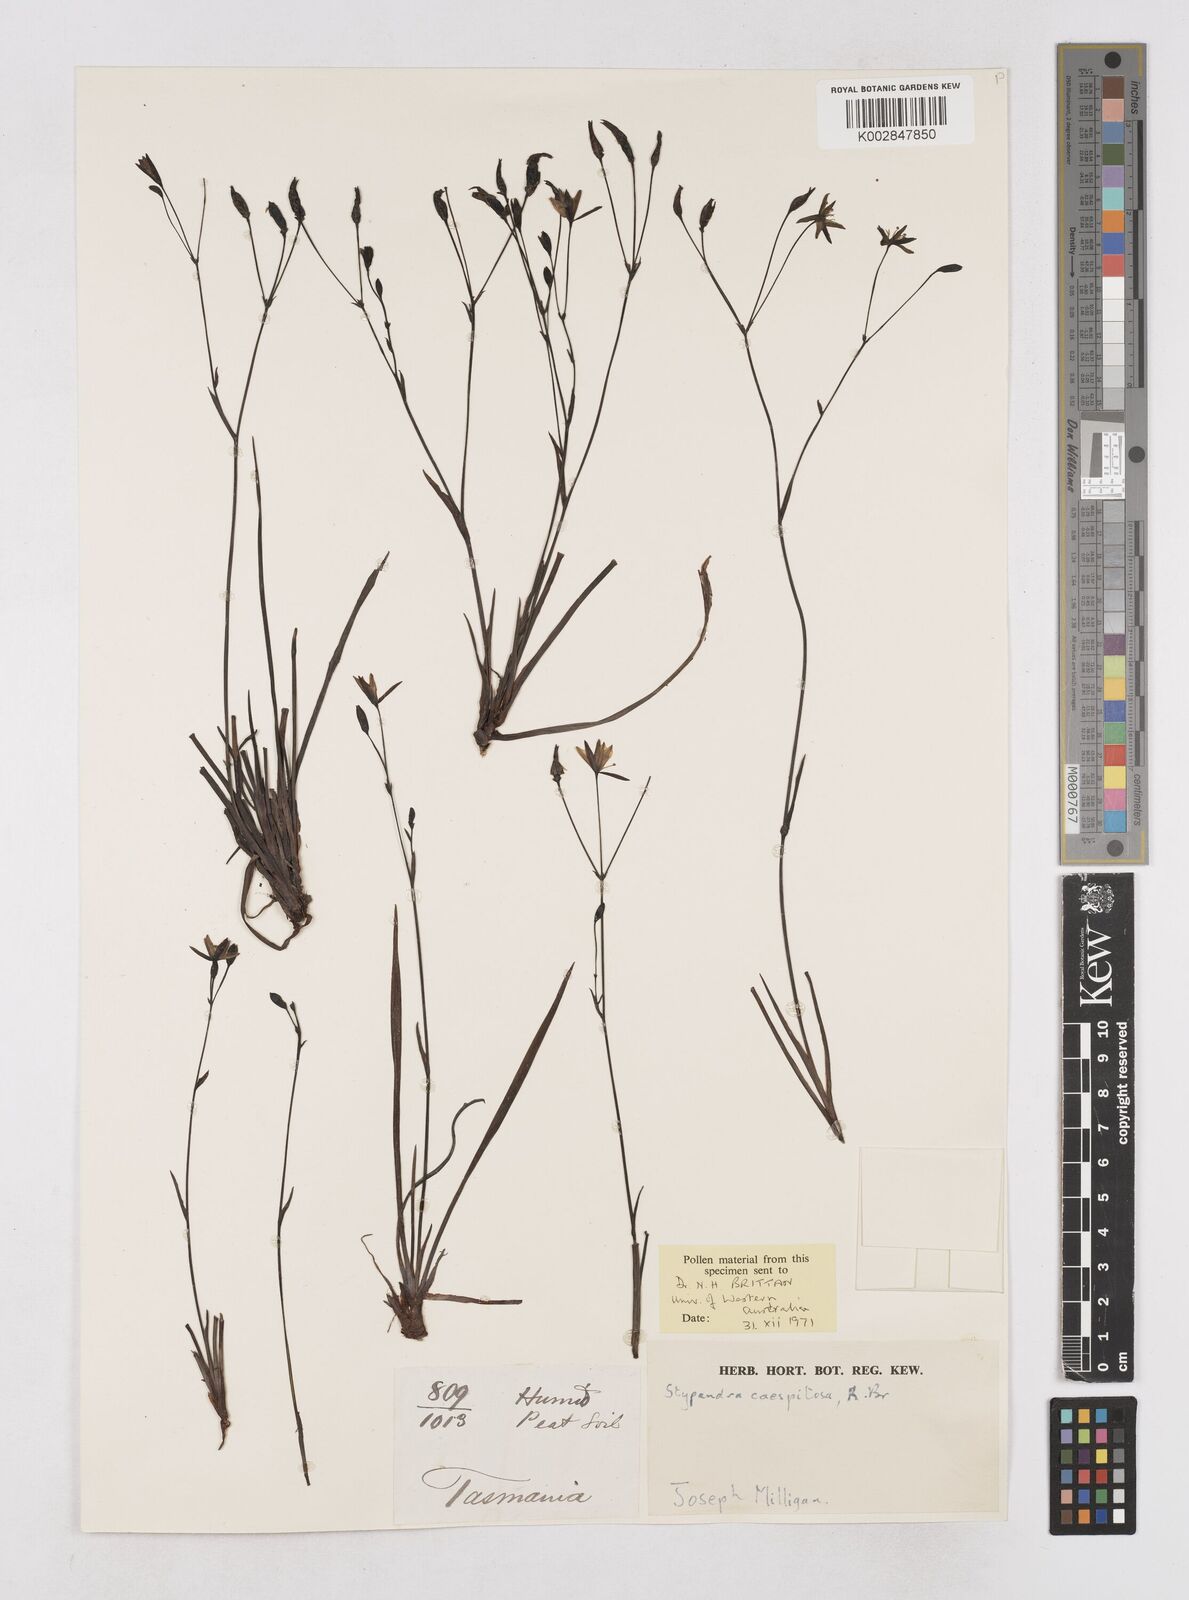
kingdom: Plantae
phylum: Tracheophyta
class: Liliopsida
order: Asparagales
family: Asphodelaceae
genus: Thelionema
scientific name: Thelionema caespitosum
